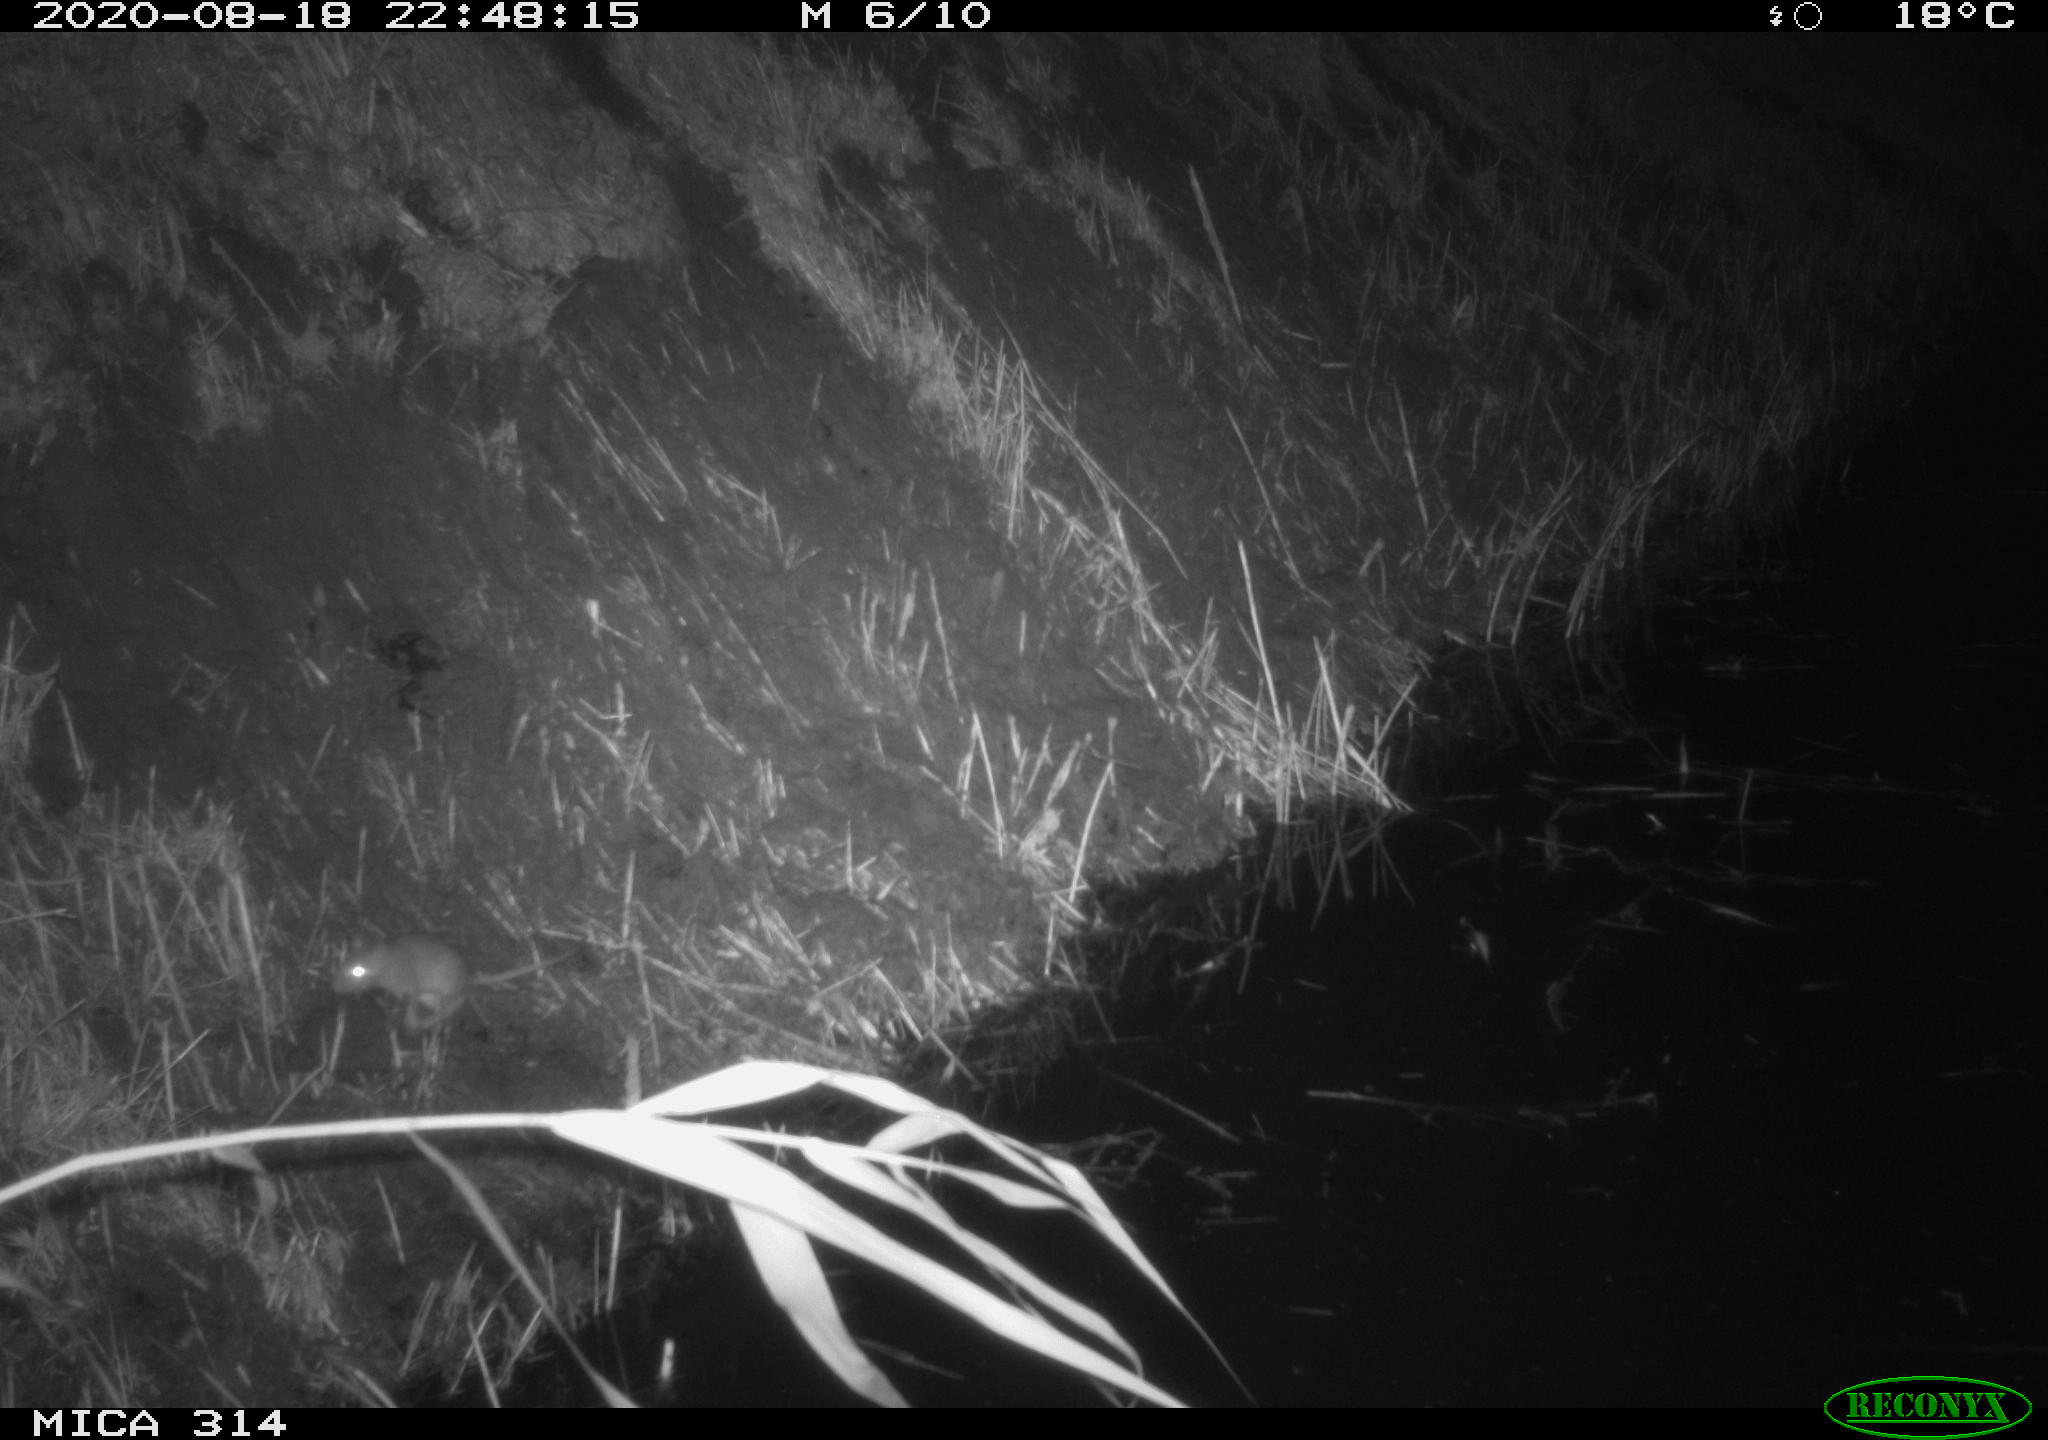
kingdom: Animalia
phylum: Chordata
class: Mammalia
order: Rodentia
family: Muridae
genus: Rattus
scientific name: Rattus norvegicus
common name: Brown rat
